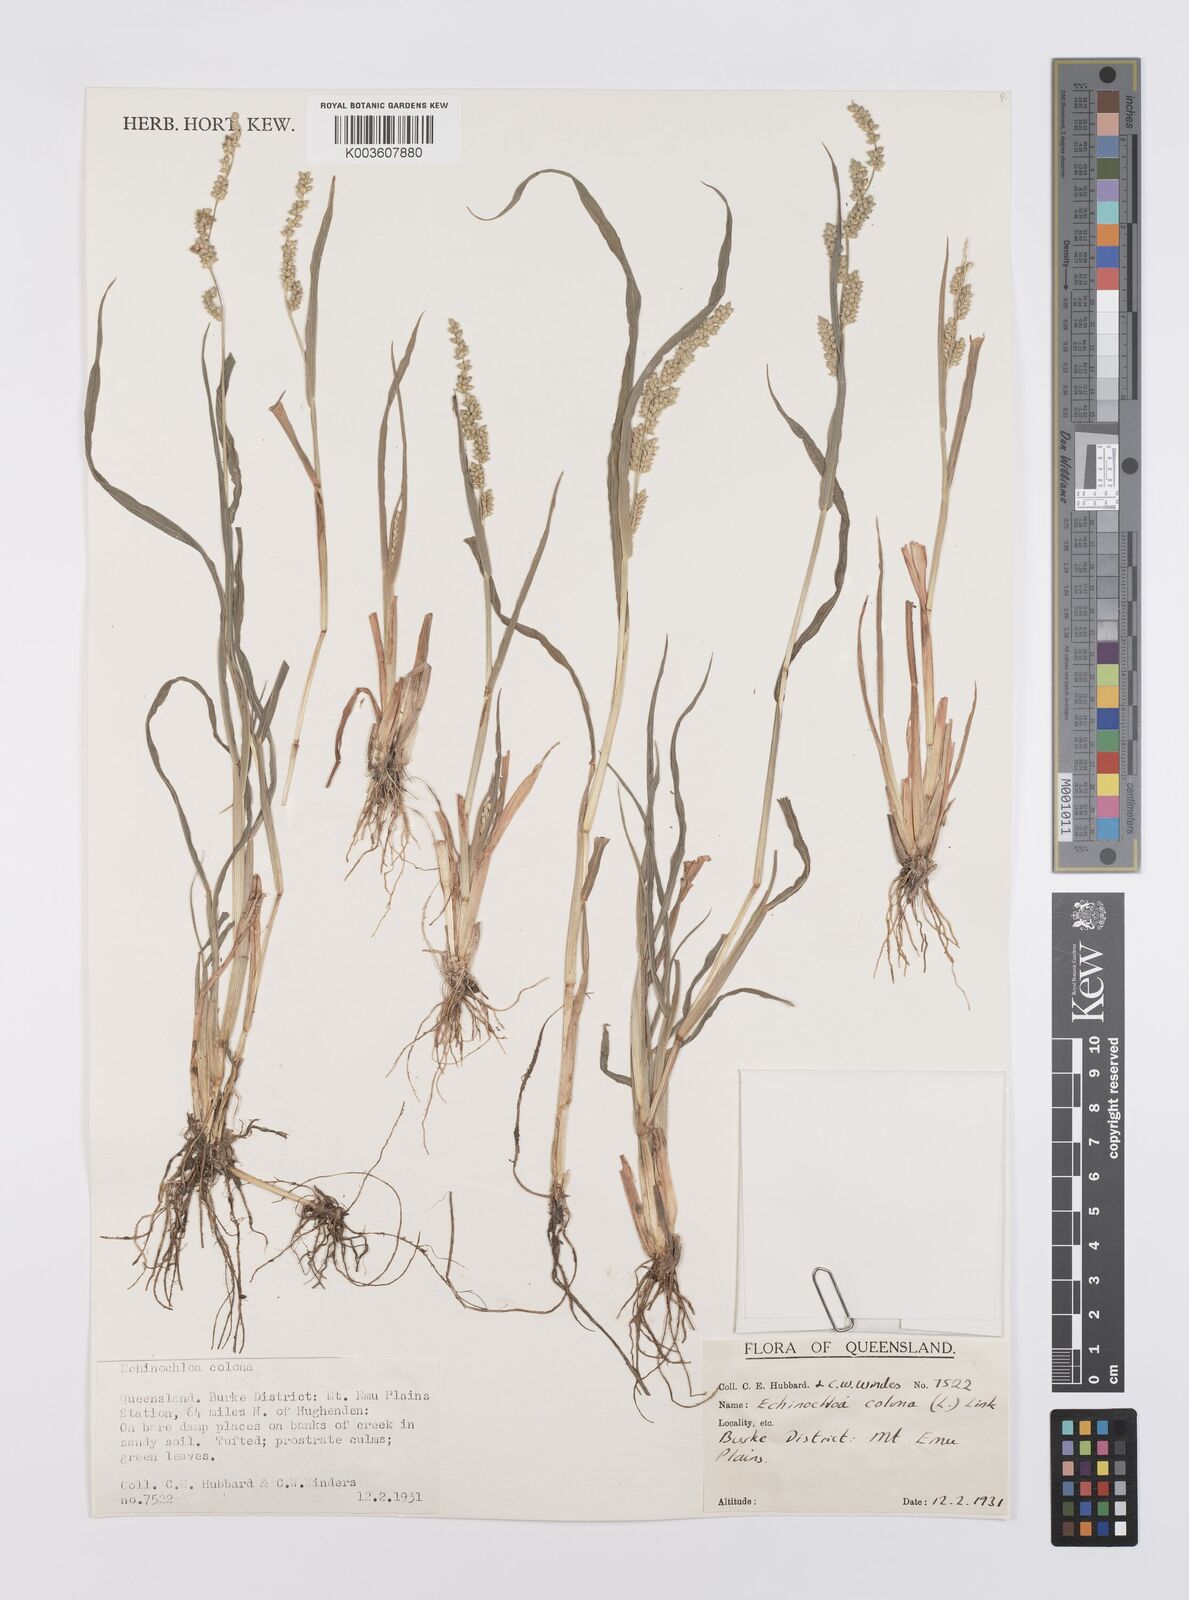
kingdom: Plantae
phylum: Tracheophyta
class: Liliopsida
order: Poales
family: Poaceae
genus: Echinochloa
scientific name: Echinochloa colonum
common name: Jungle rice
